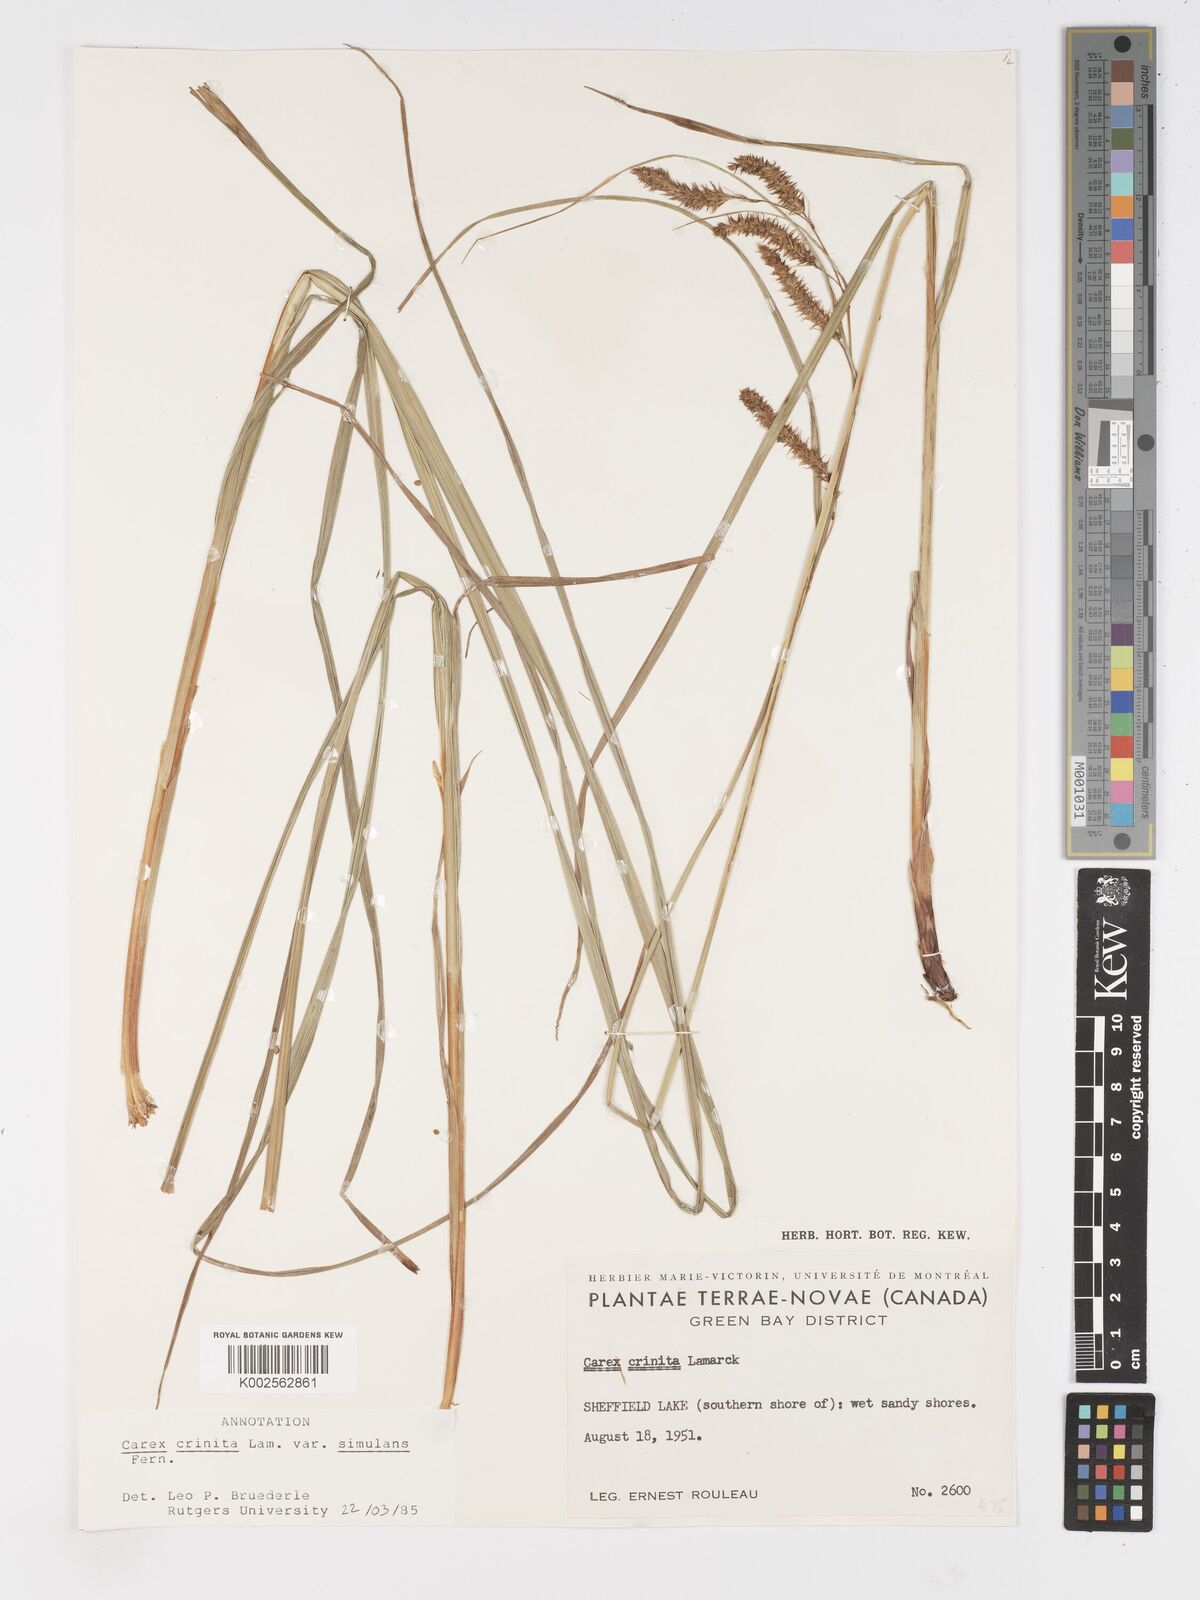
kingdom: Plantae
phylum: Tracheophyta
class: Liliopsida
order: Poales
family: Cyperaceae
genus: Carex
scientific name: Carex gynandra
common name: Nodding sedge
